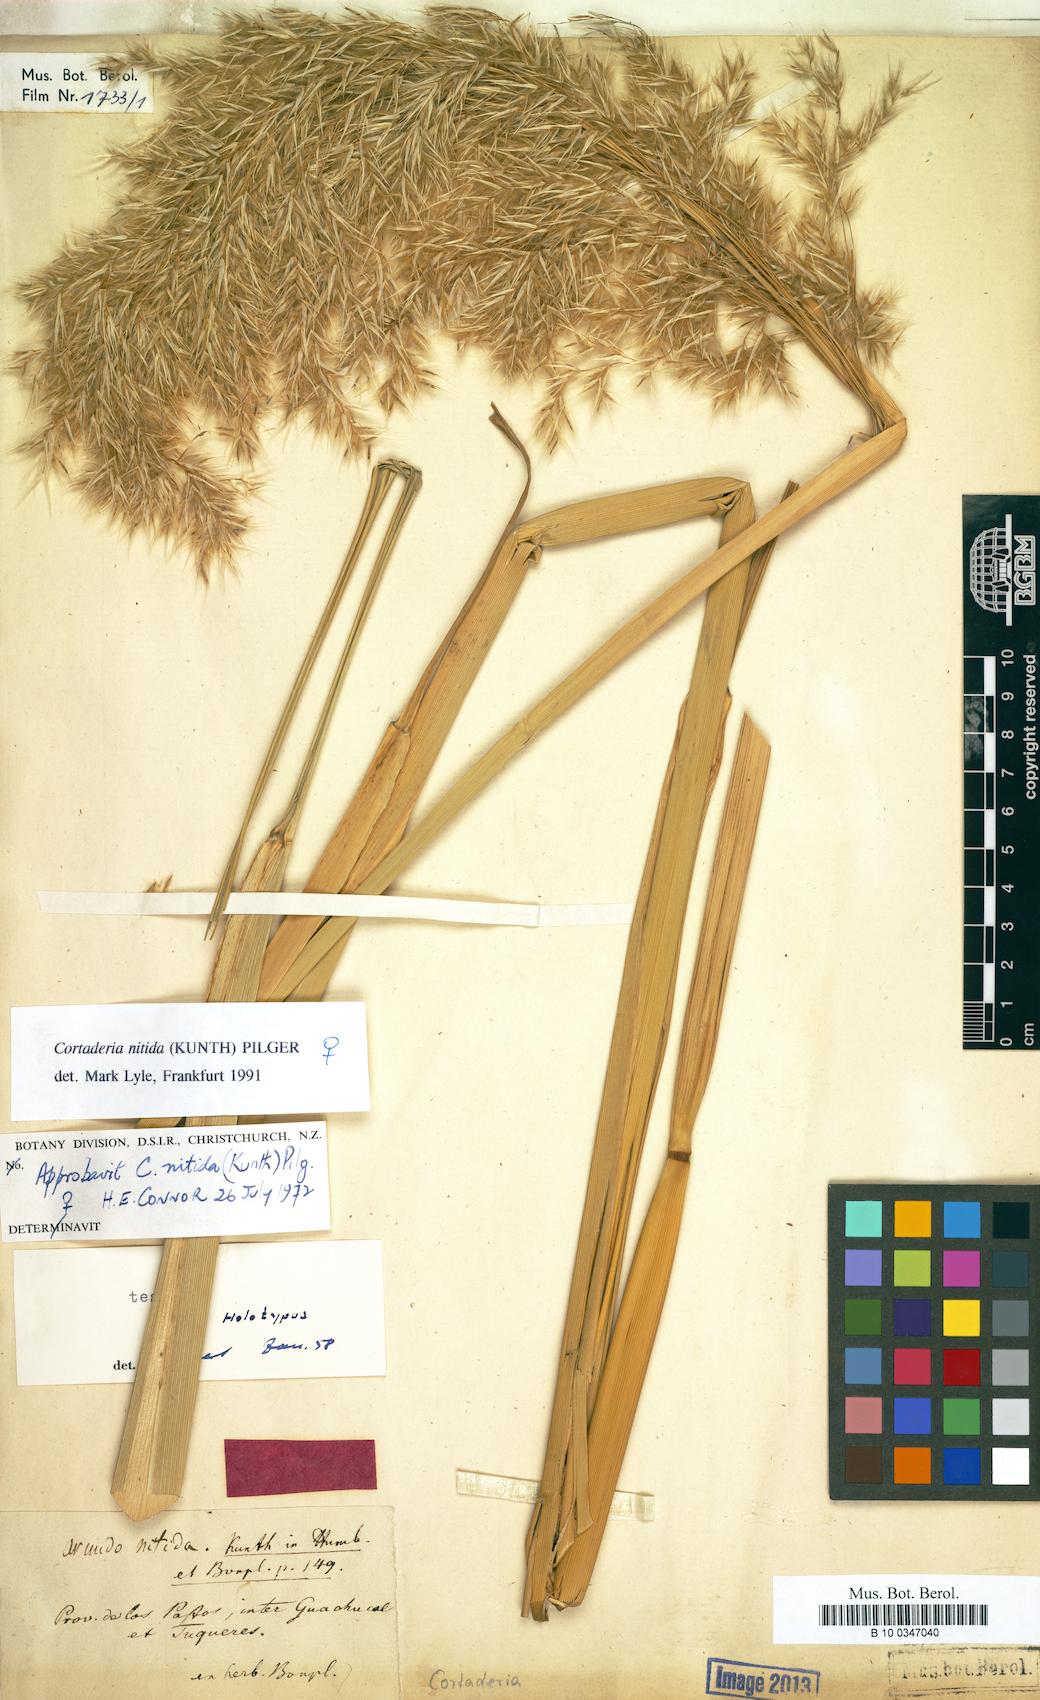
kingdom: Plantae
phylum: Tracheophyta
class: Liliopsida
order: Poales
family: Poaceae
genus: Cortaderia
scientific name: Cortaderia nitida
